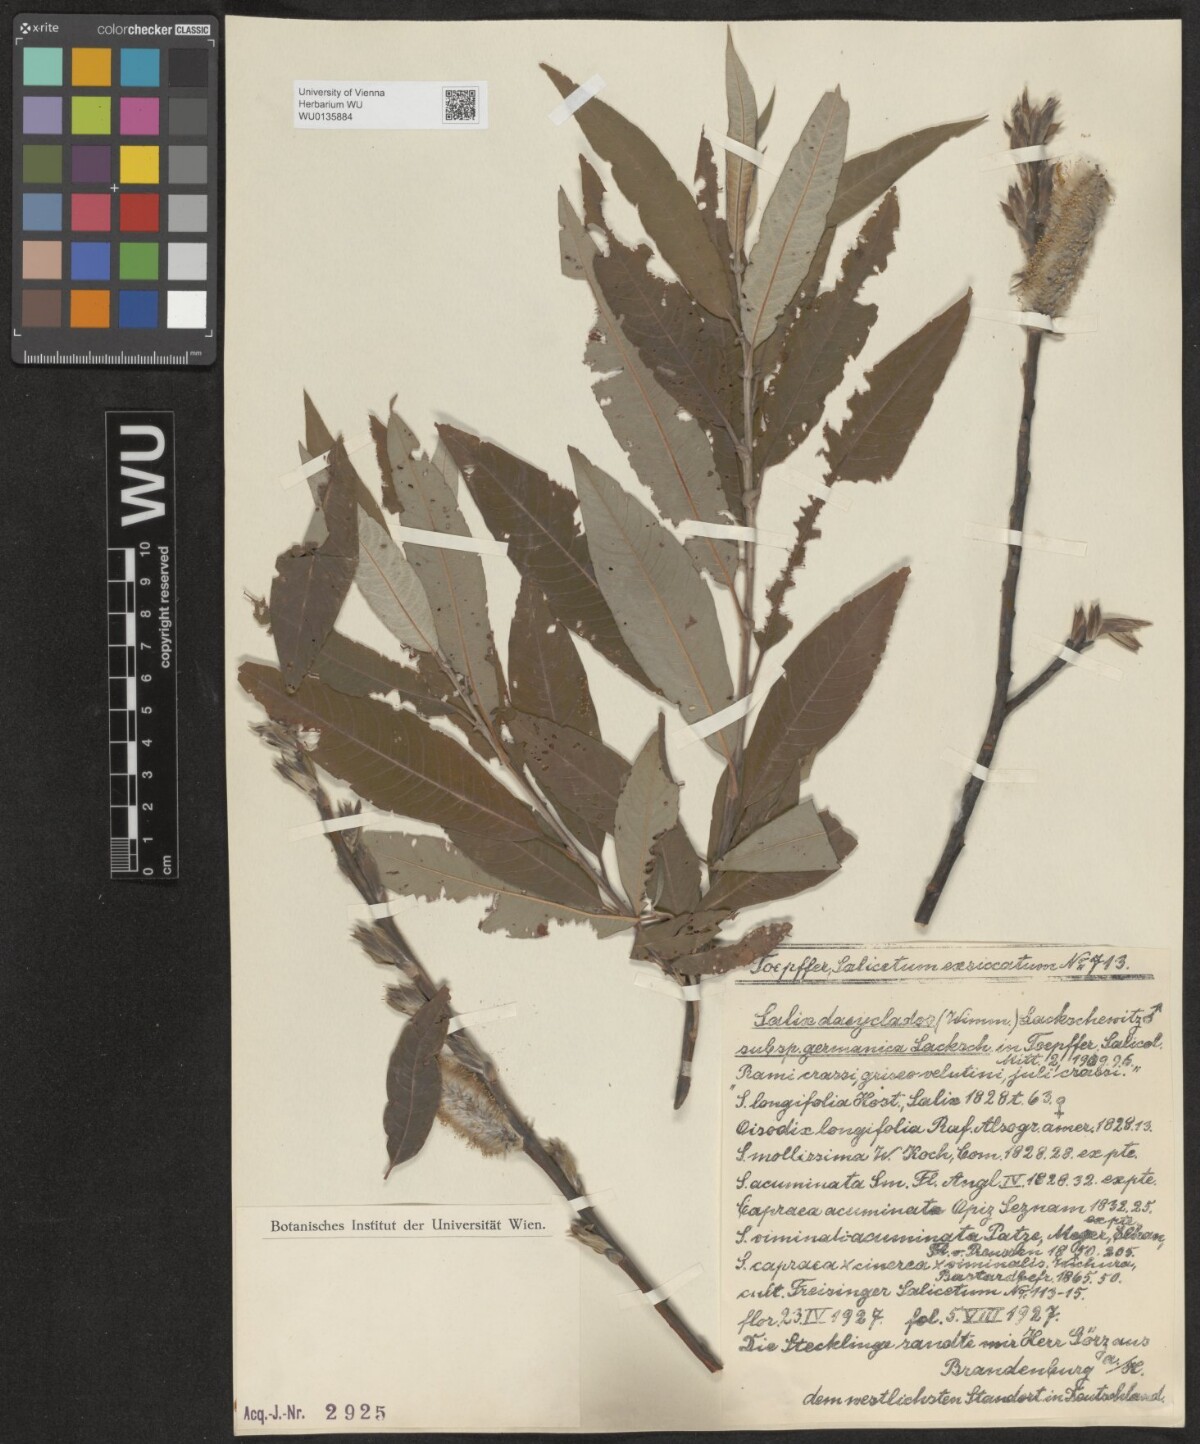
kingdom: Plantae
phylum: Tracheophyta
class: Magnoliopsida
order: Malpighiales
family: Salicaceae
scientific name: Salicaceae
